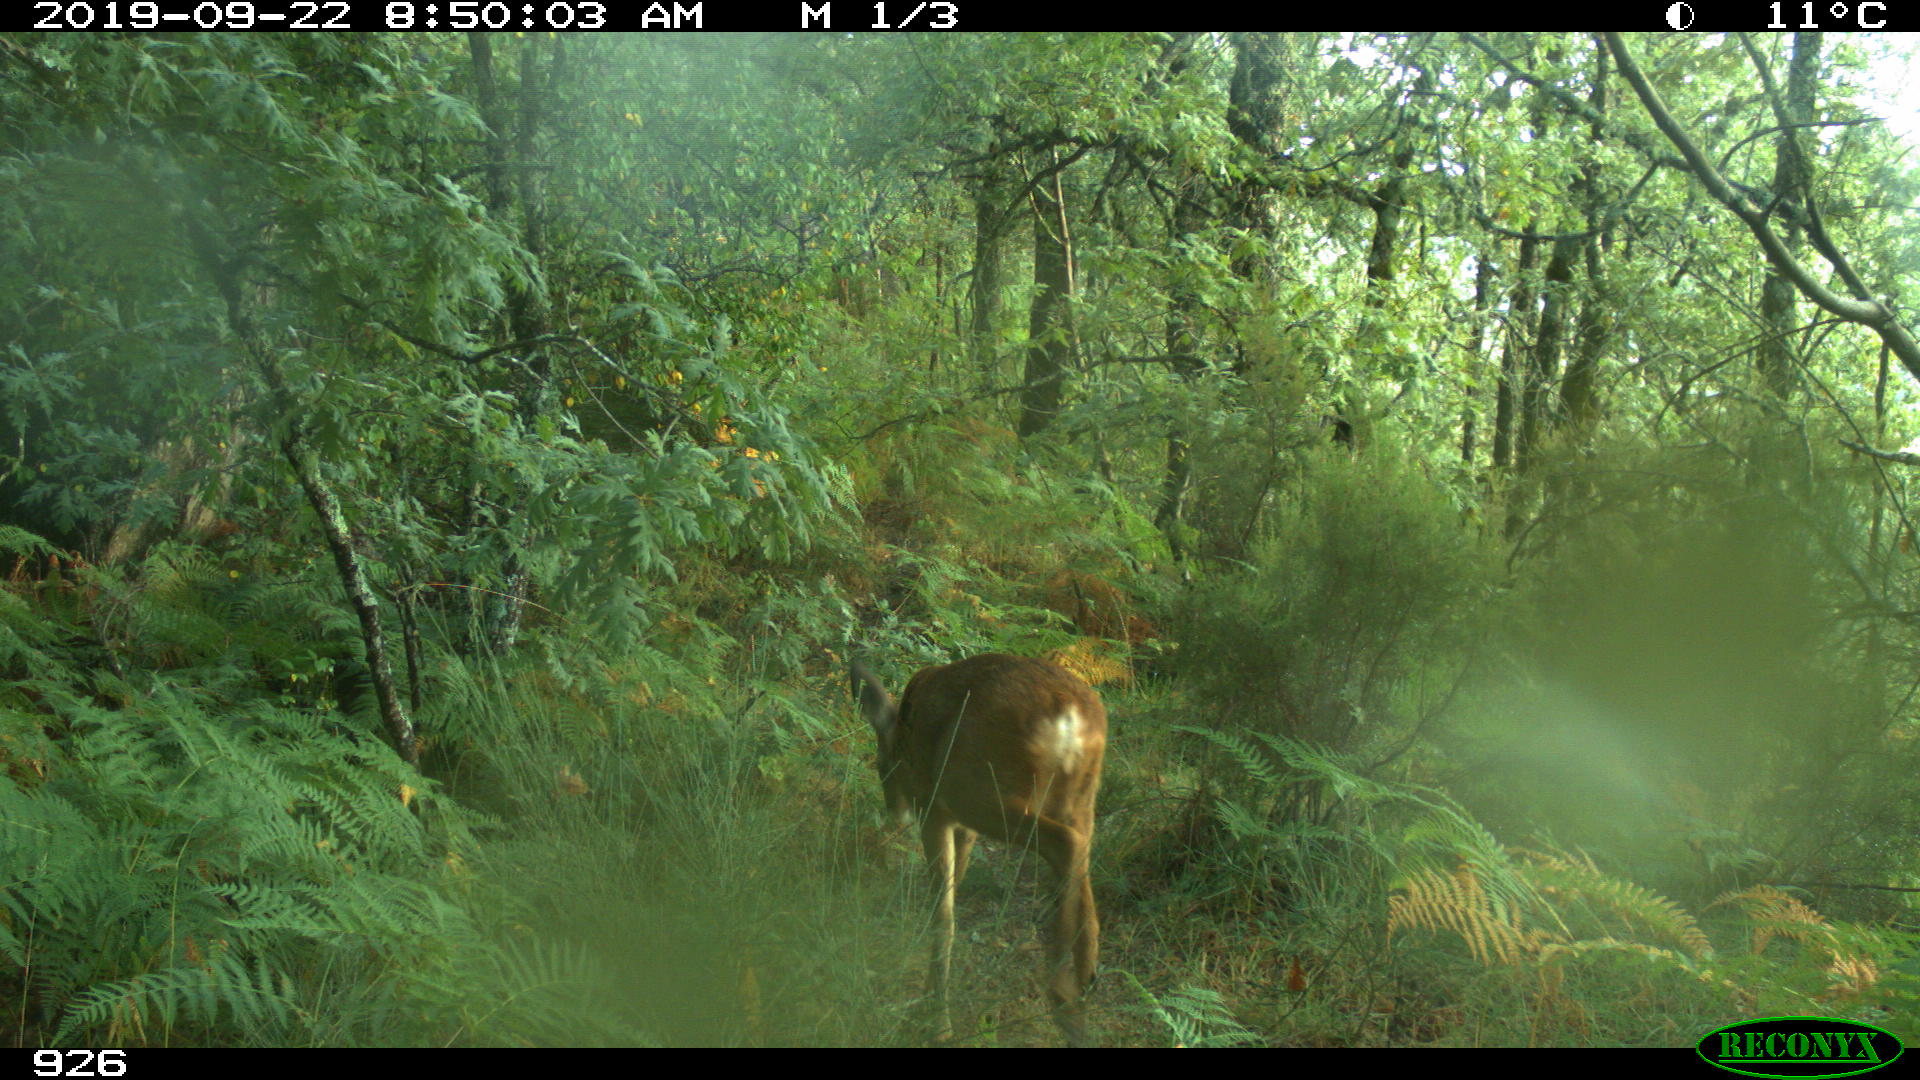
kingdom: Animalia
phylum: Chordata
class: Mammalia
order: Artiodactyla
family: Cervidae
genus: Capreolus
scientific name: Capreolus capreolus
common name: Western roe deer
